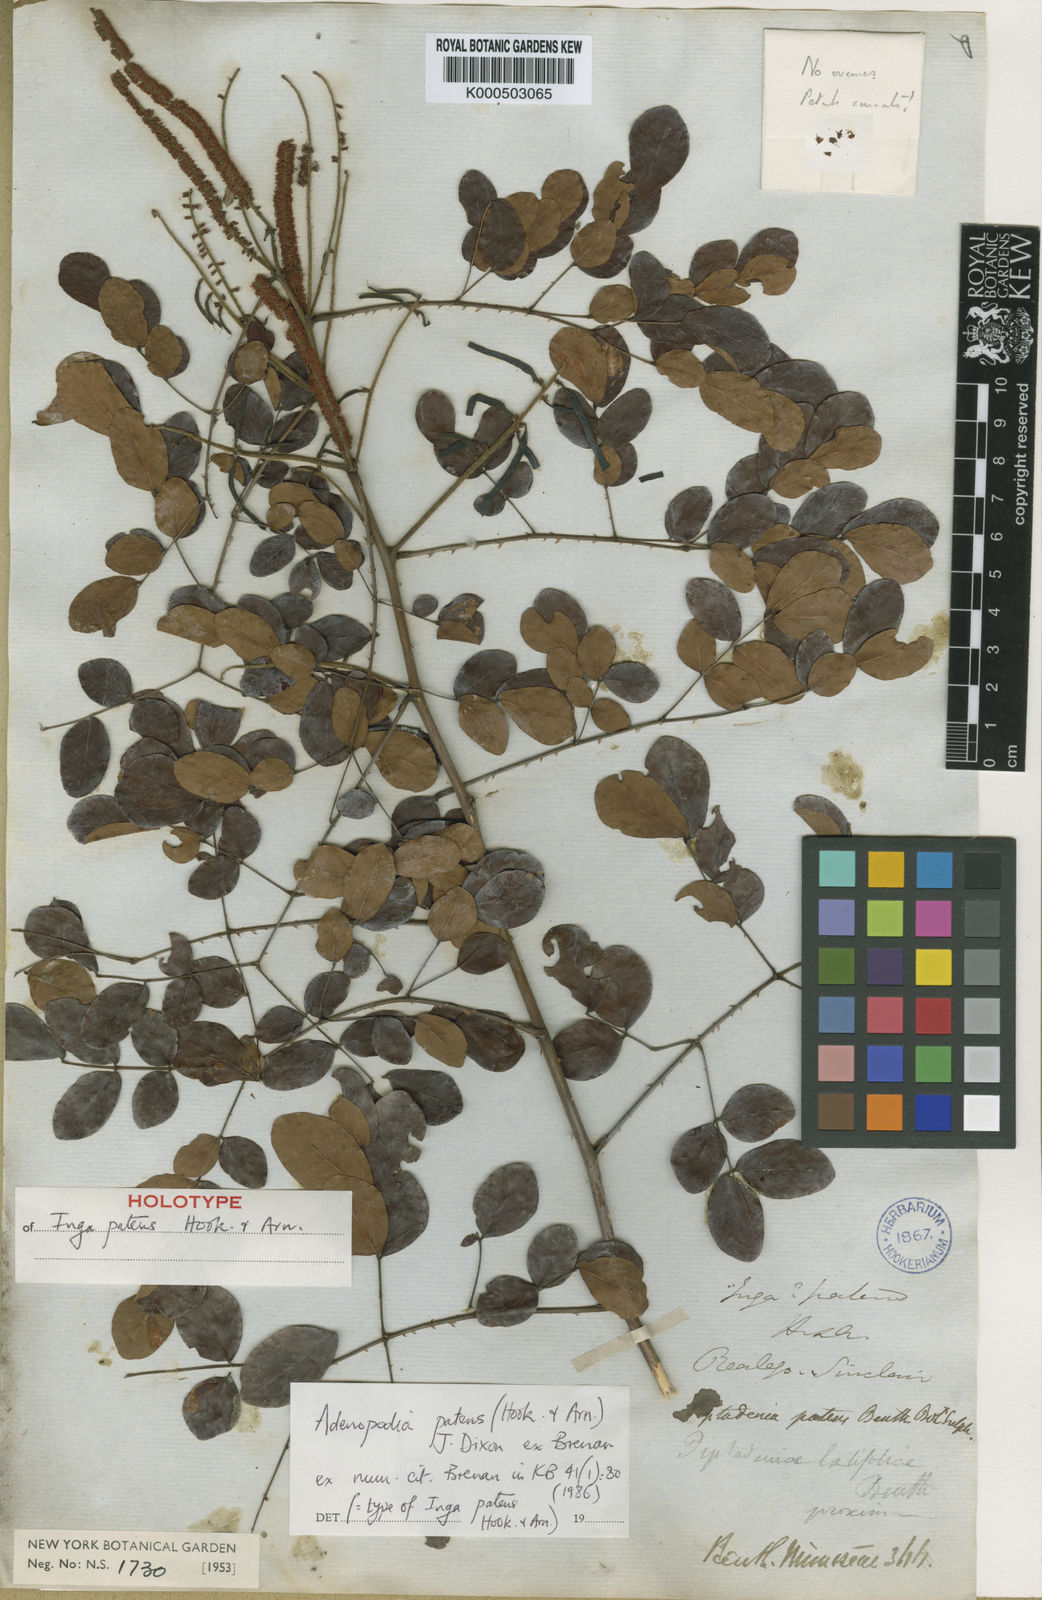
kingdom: Plantae
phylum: Tracheophyta
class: Magnoliopsida
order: Fabales
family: Fabaceae
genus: Adenopodia
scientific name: Adenopodia patens
